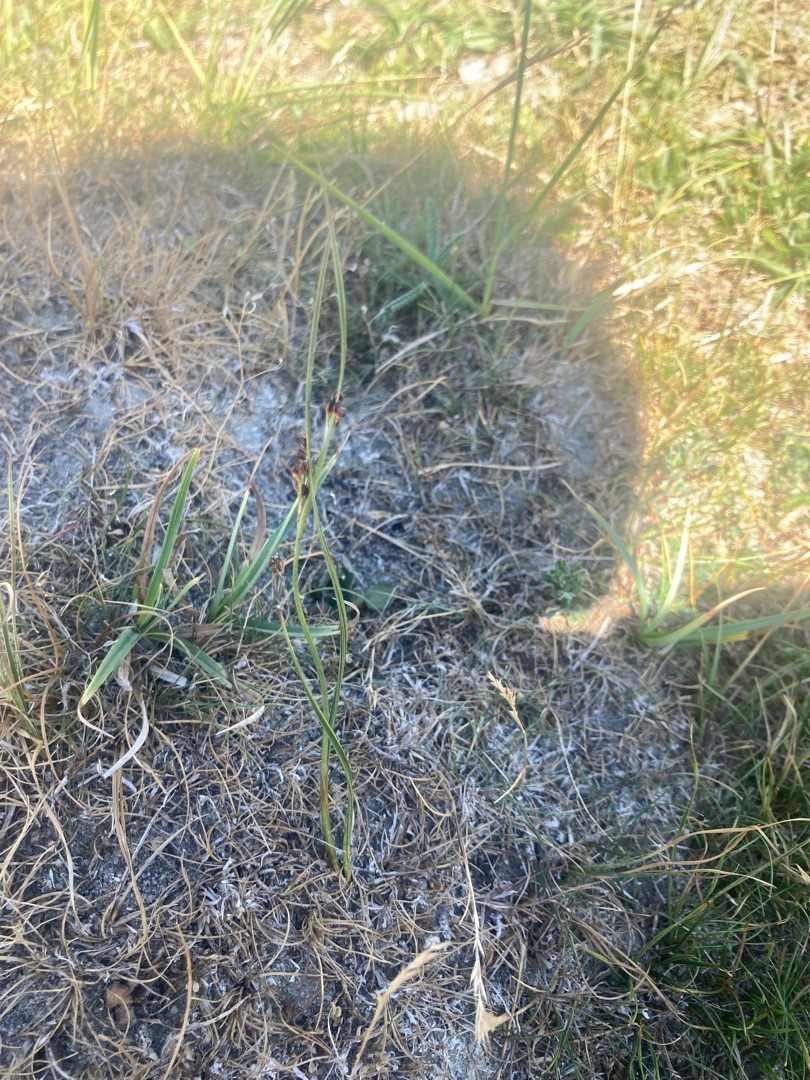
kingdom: Plantae
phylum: Tracheophyta
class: Liliopsida
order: Poales
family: Juncaceae
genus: Juncus
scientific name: Juncus gerardi
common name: Harril
